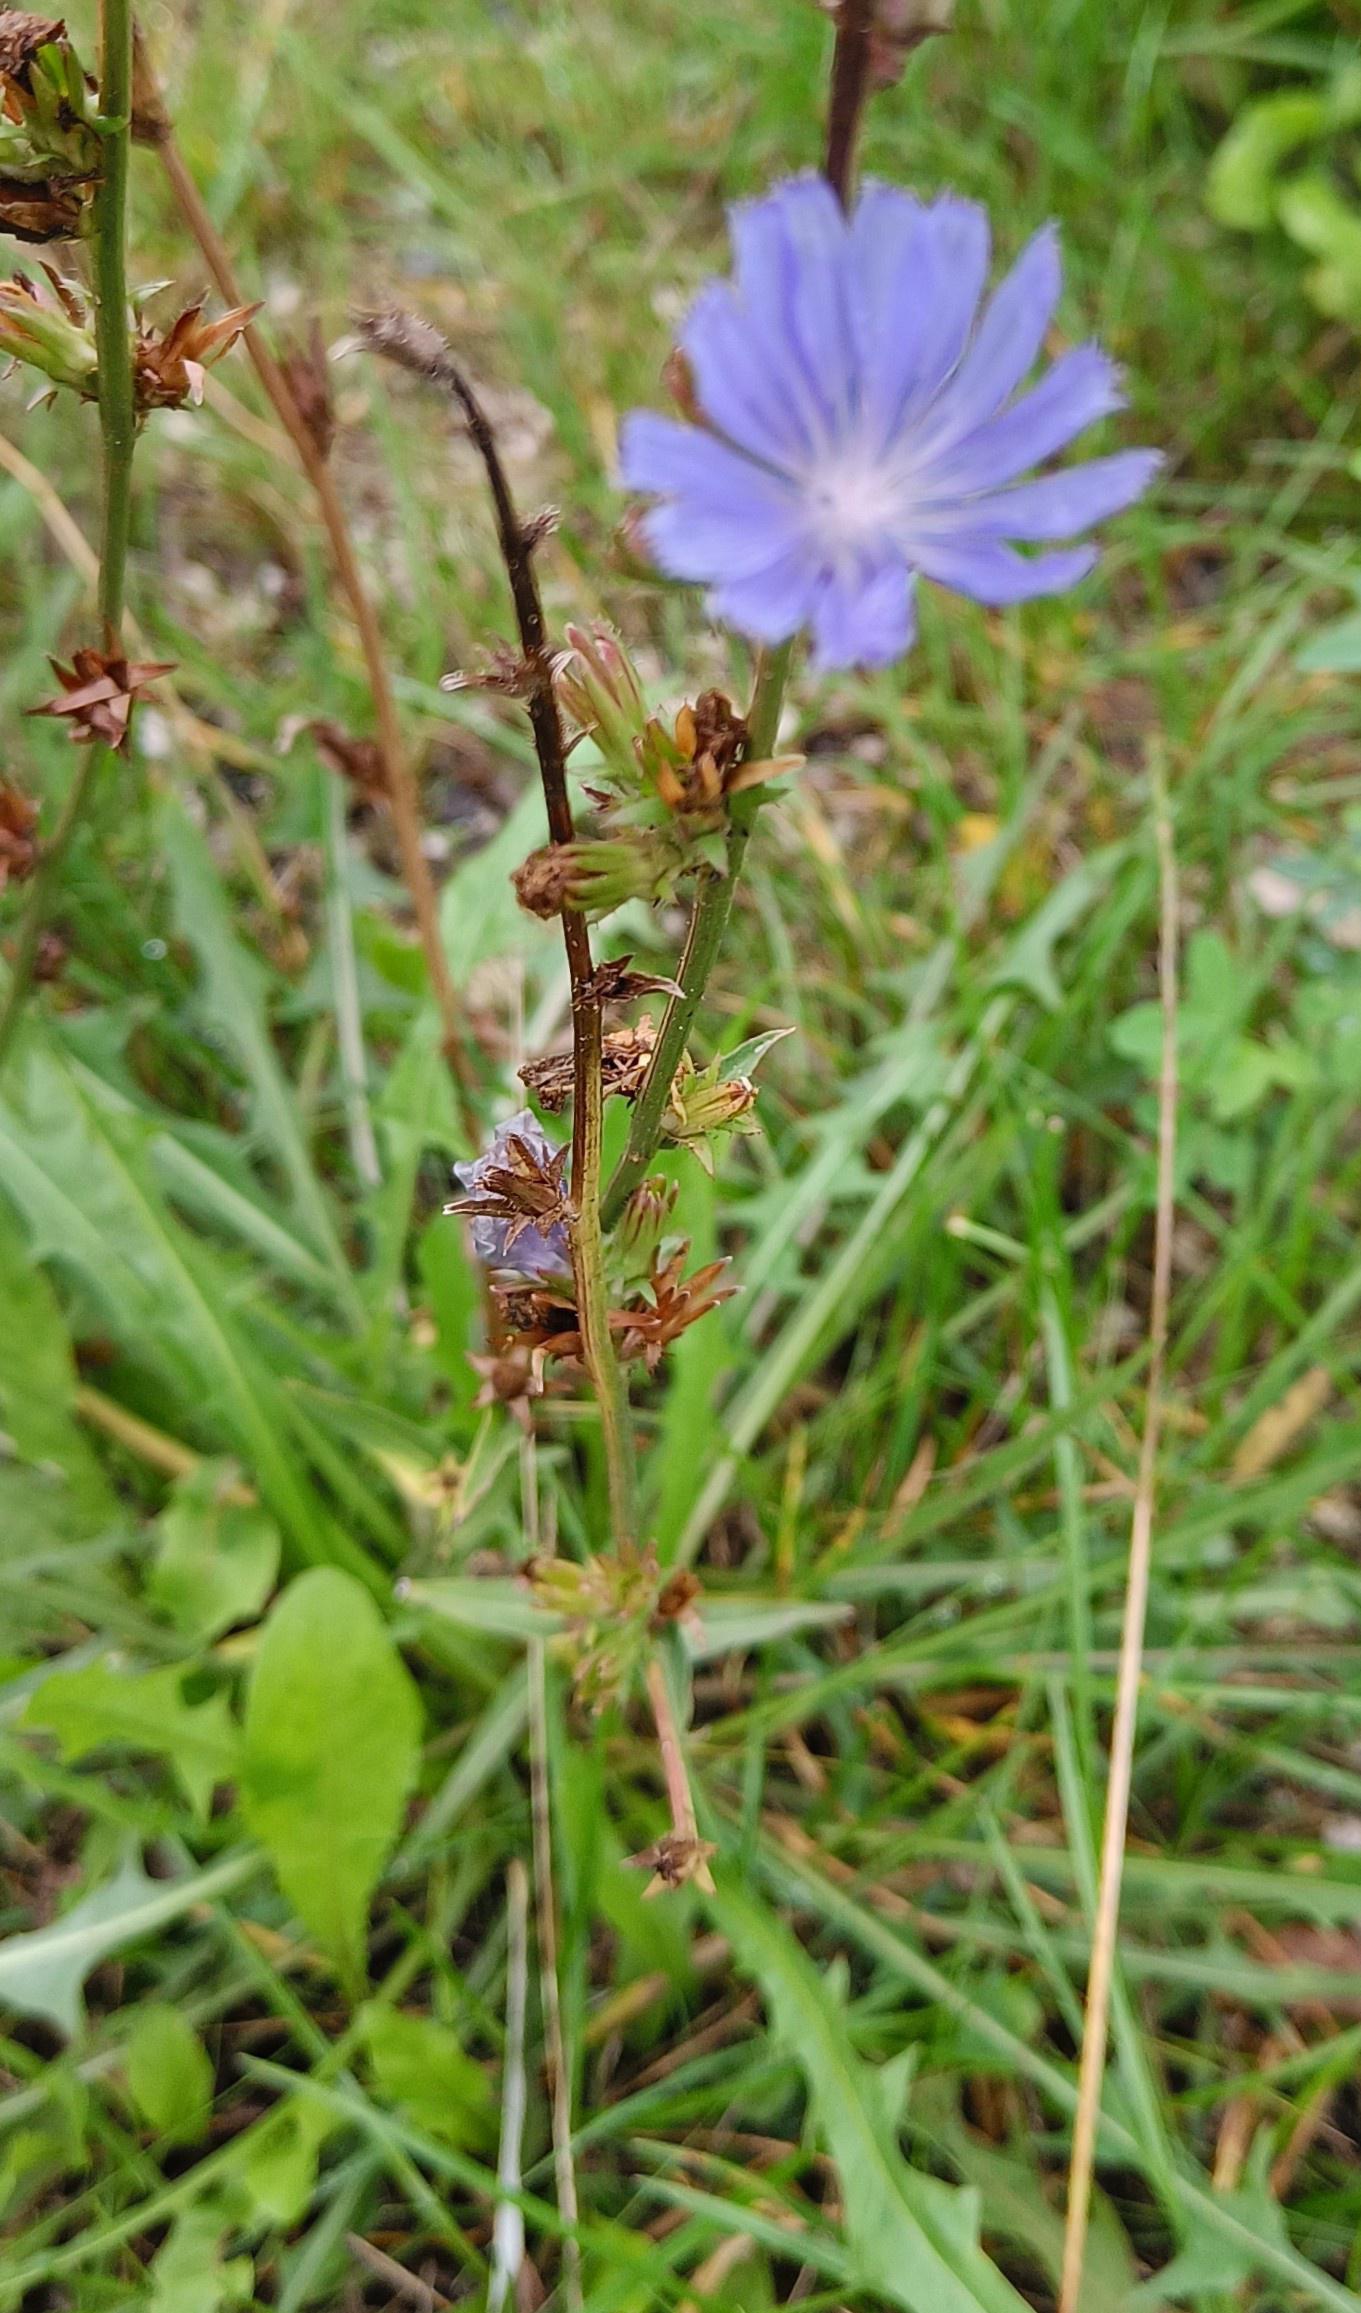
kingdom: Plantae
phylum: Tracheophyta
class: Magnoliopsida
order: Asterales
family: Asteraceae
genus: Cichorium
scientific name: Cichorium intybus
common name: Cikorie
